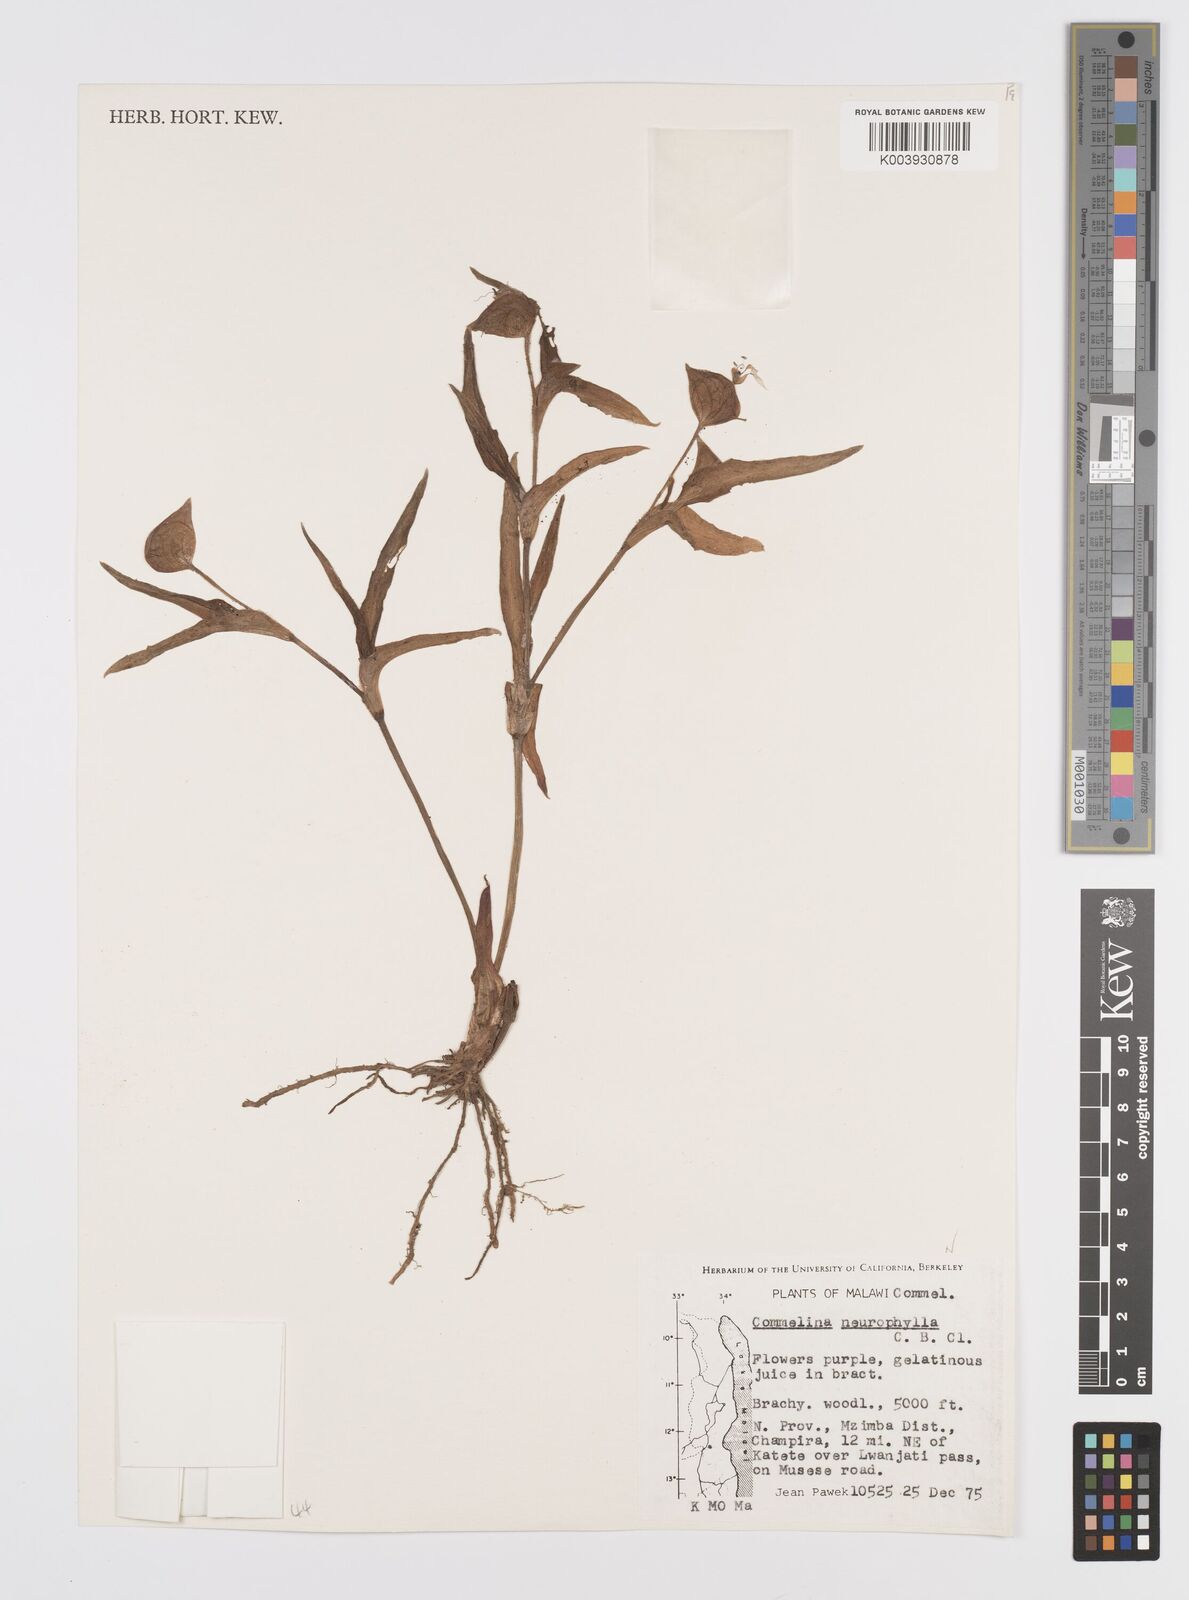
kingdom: Plantae
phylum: Tracheophyta
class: Liliopsida
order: Commelinales
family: Commelinaceae
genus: Commelina
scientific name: Commelina neurophylla
